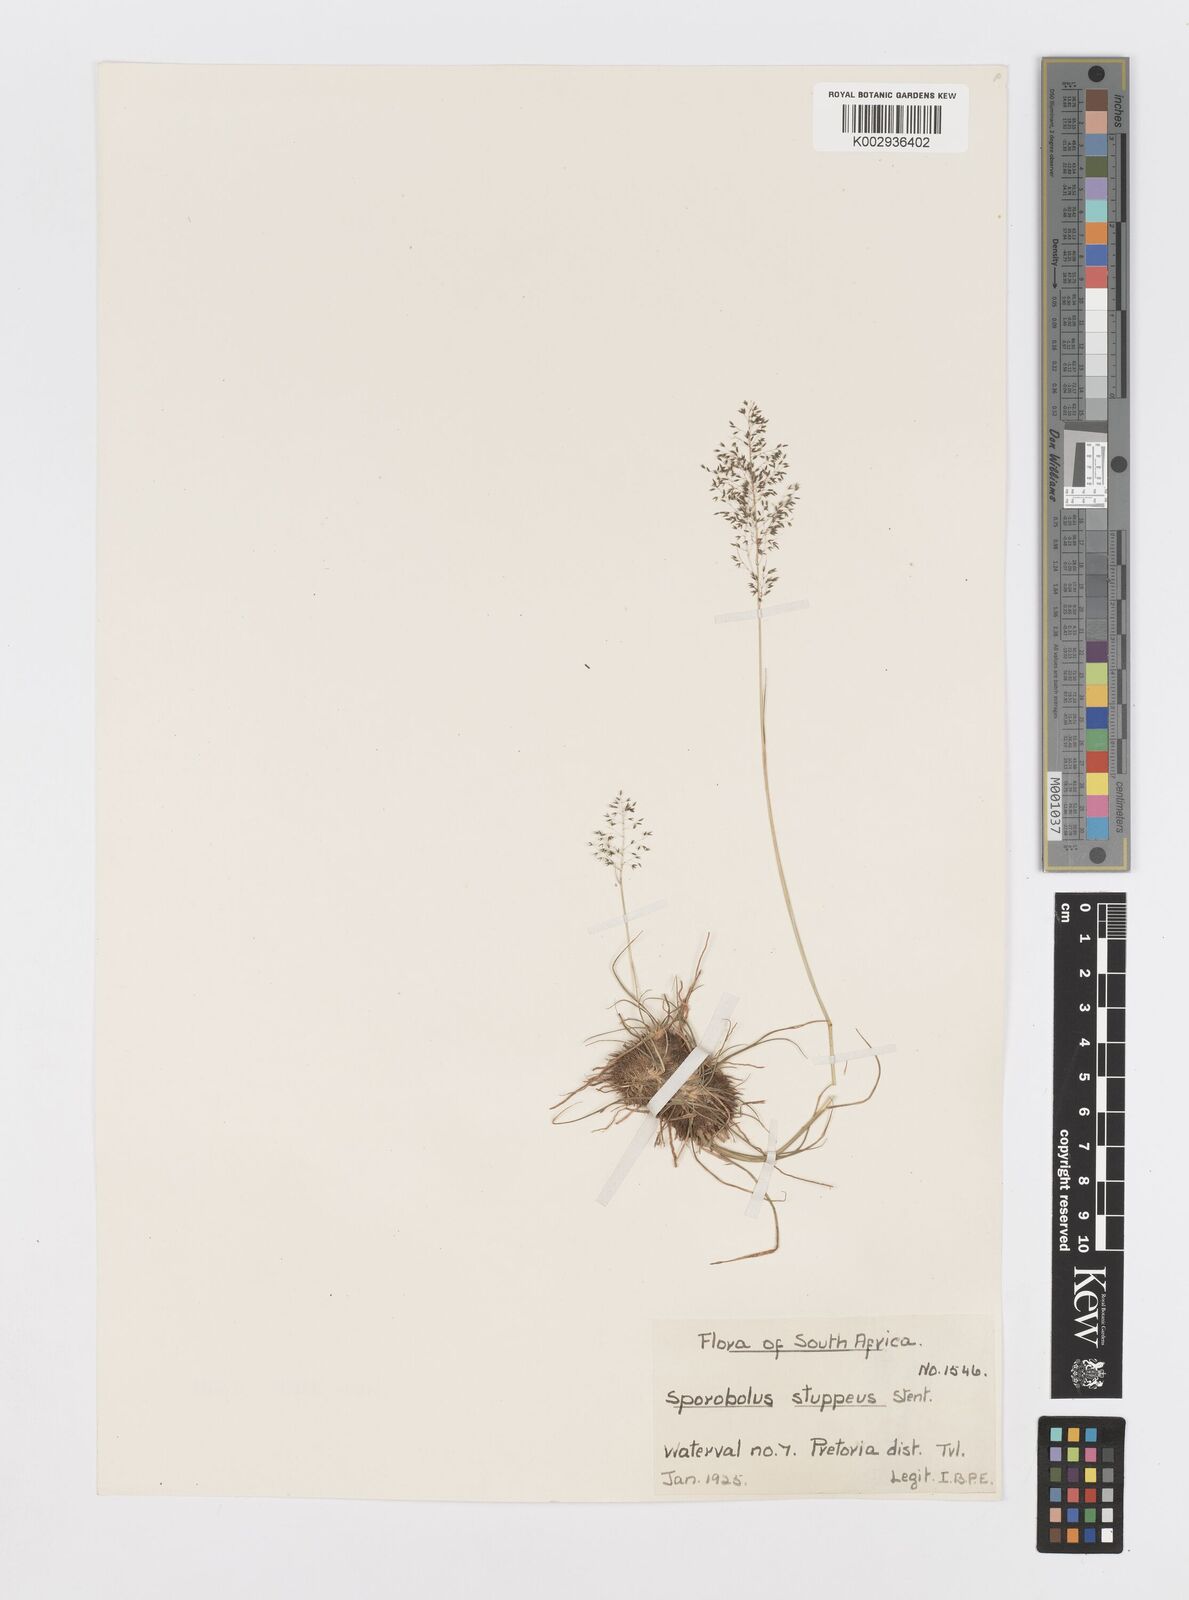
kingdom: Plantae
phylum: Tracheophyta
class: Liliopsida
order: Poales
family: Poaceae
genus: Sporobolus
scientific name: Sporobolus stapfianus
